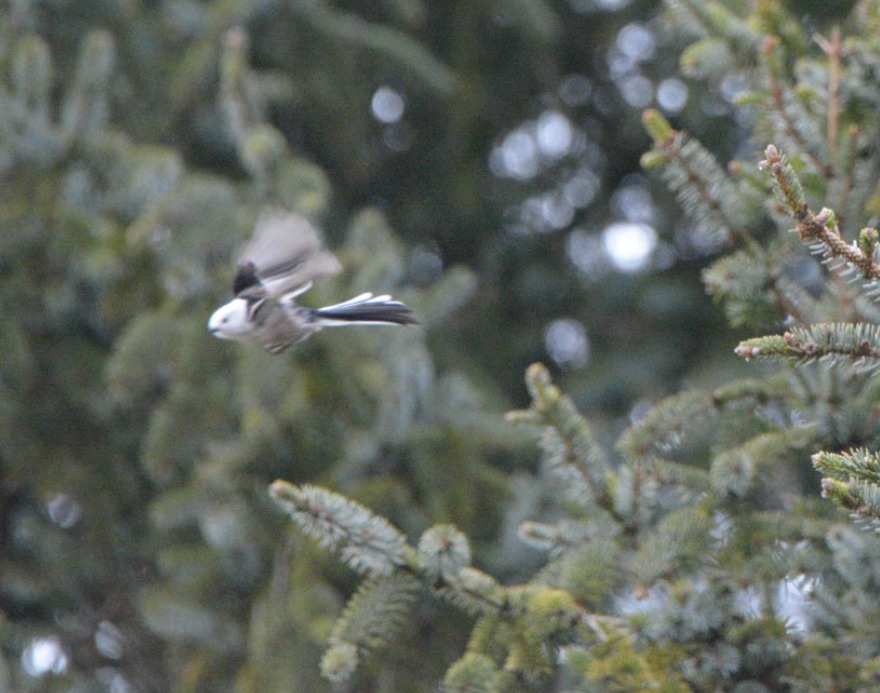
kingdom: Animalia
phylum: Chordata
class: Aves
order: Passeriformes
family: Aegithalidae
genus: Aegithalos
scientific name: Aegithalos caudatus
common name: Halemejse
